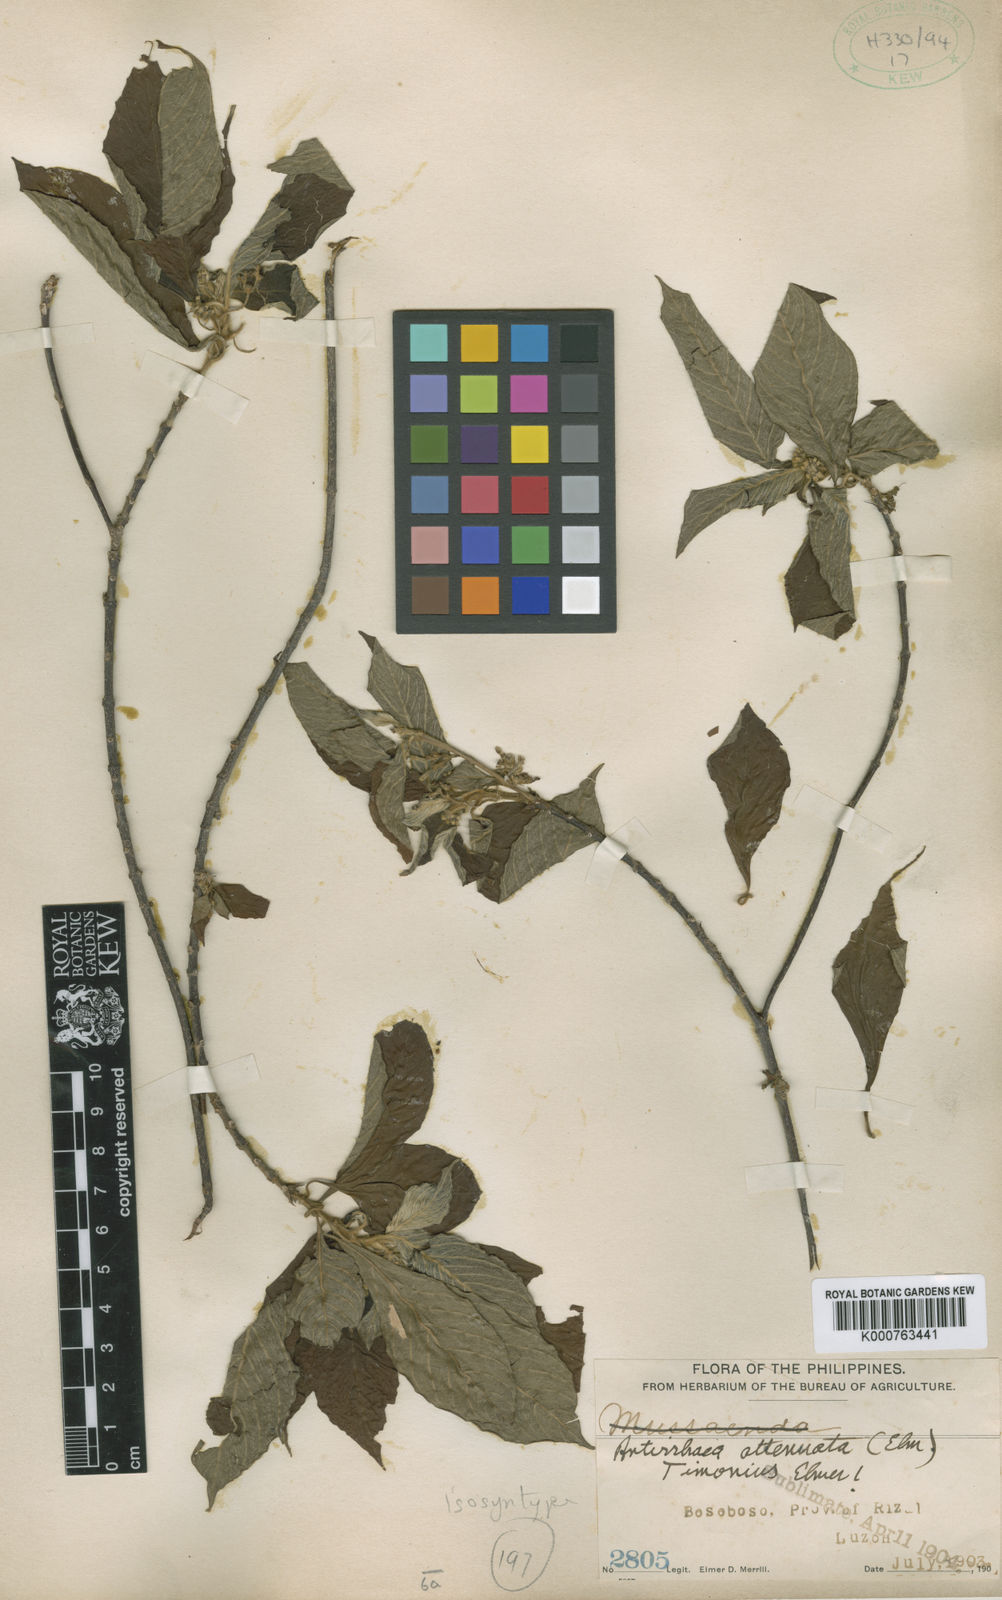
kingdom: Plantae
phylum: Tracheophyta
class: Magnoliopsida
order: Gentianales
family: Rubiaceae
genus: Guettardella
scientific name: Guettardella attenuata
